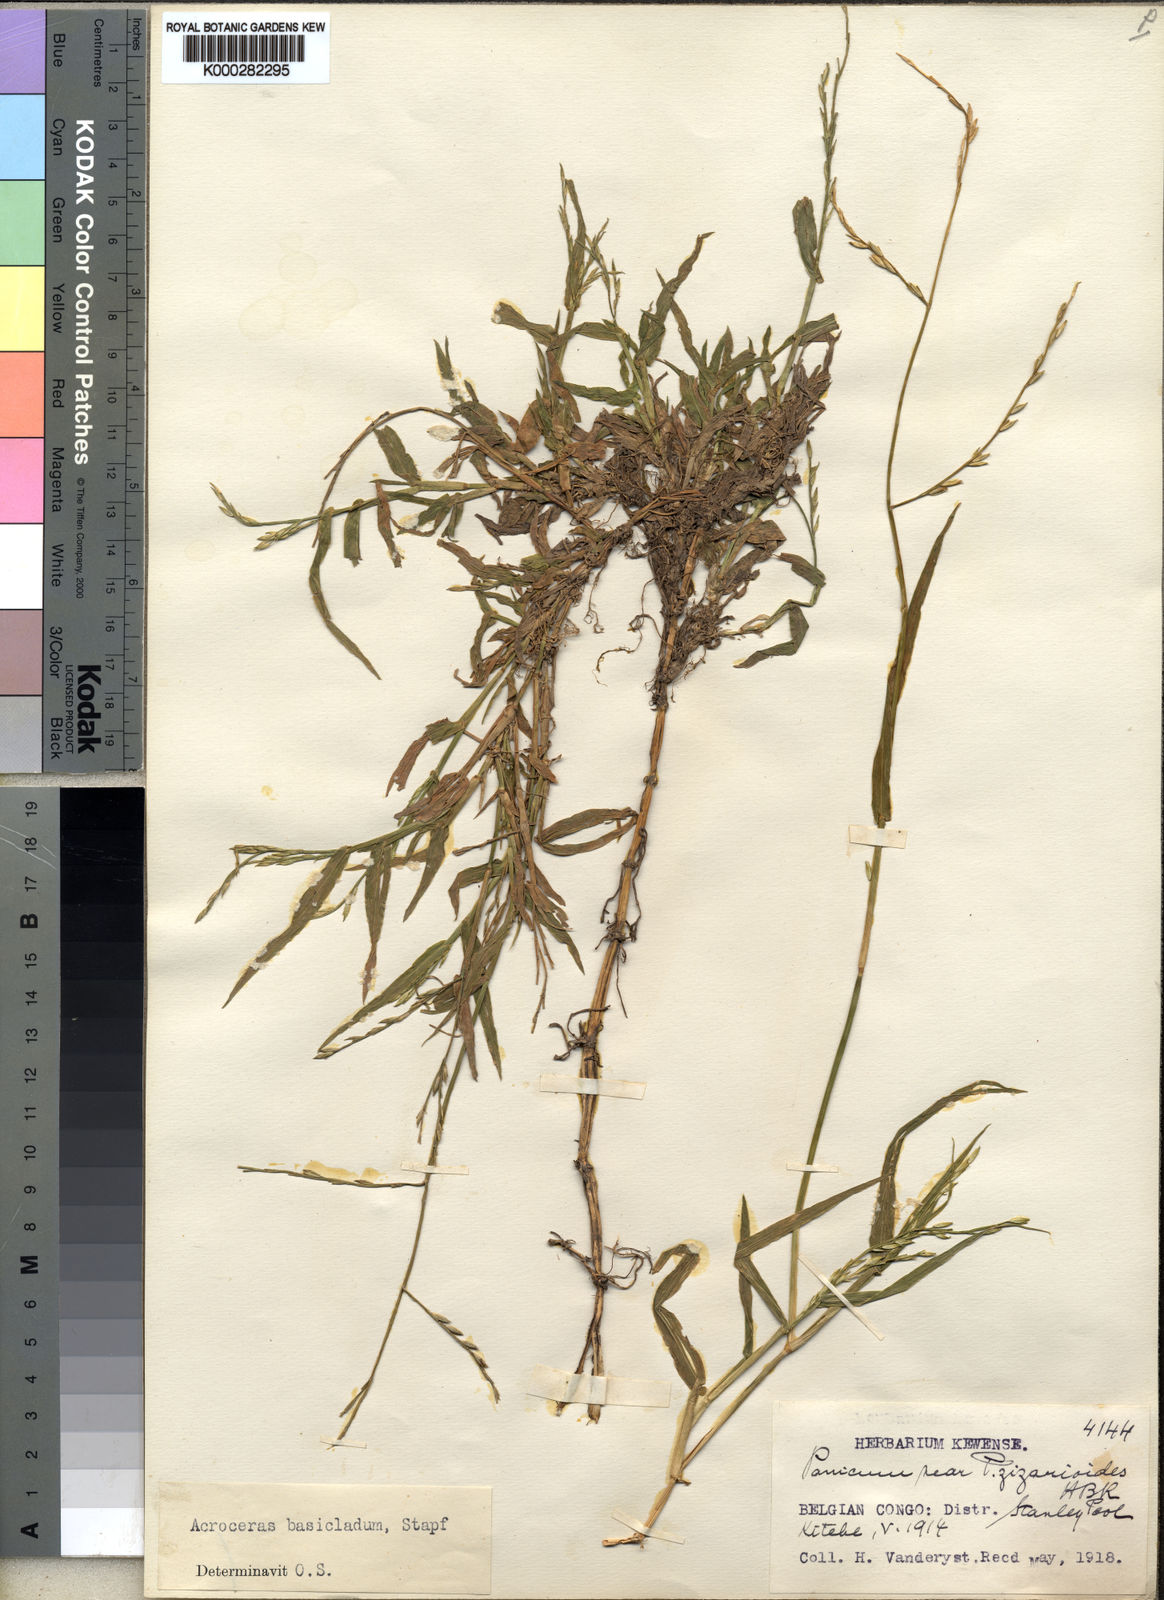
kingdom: Plantae
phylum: Tracheophyta
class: Liliopsida
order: Poales
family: Poaceae
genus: Acroceras
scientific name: Acroceras amplectens
